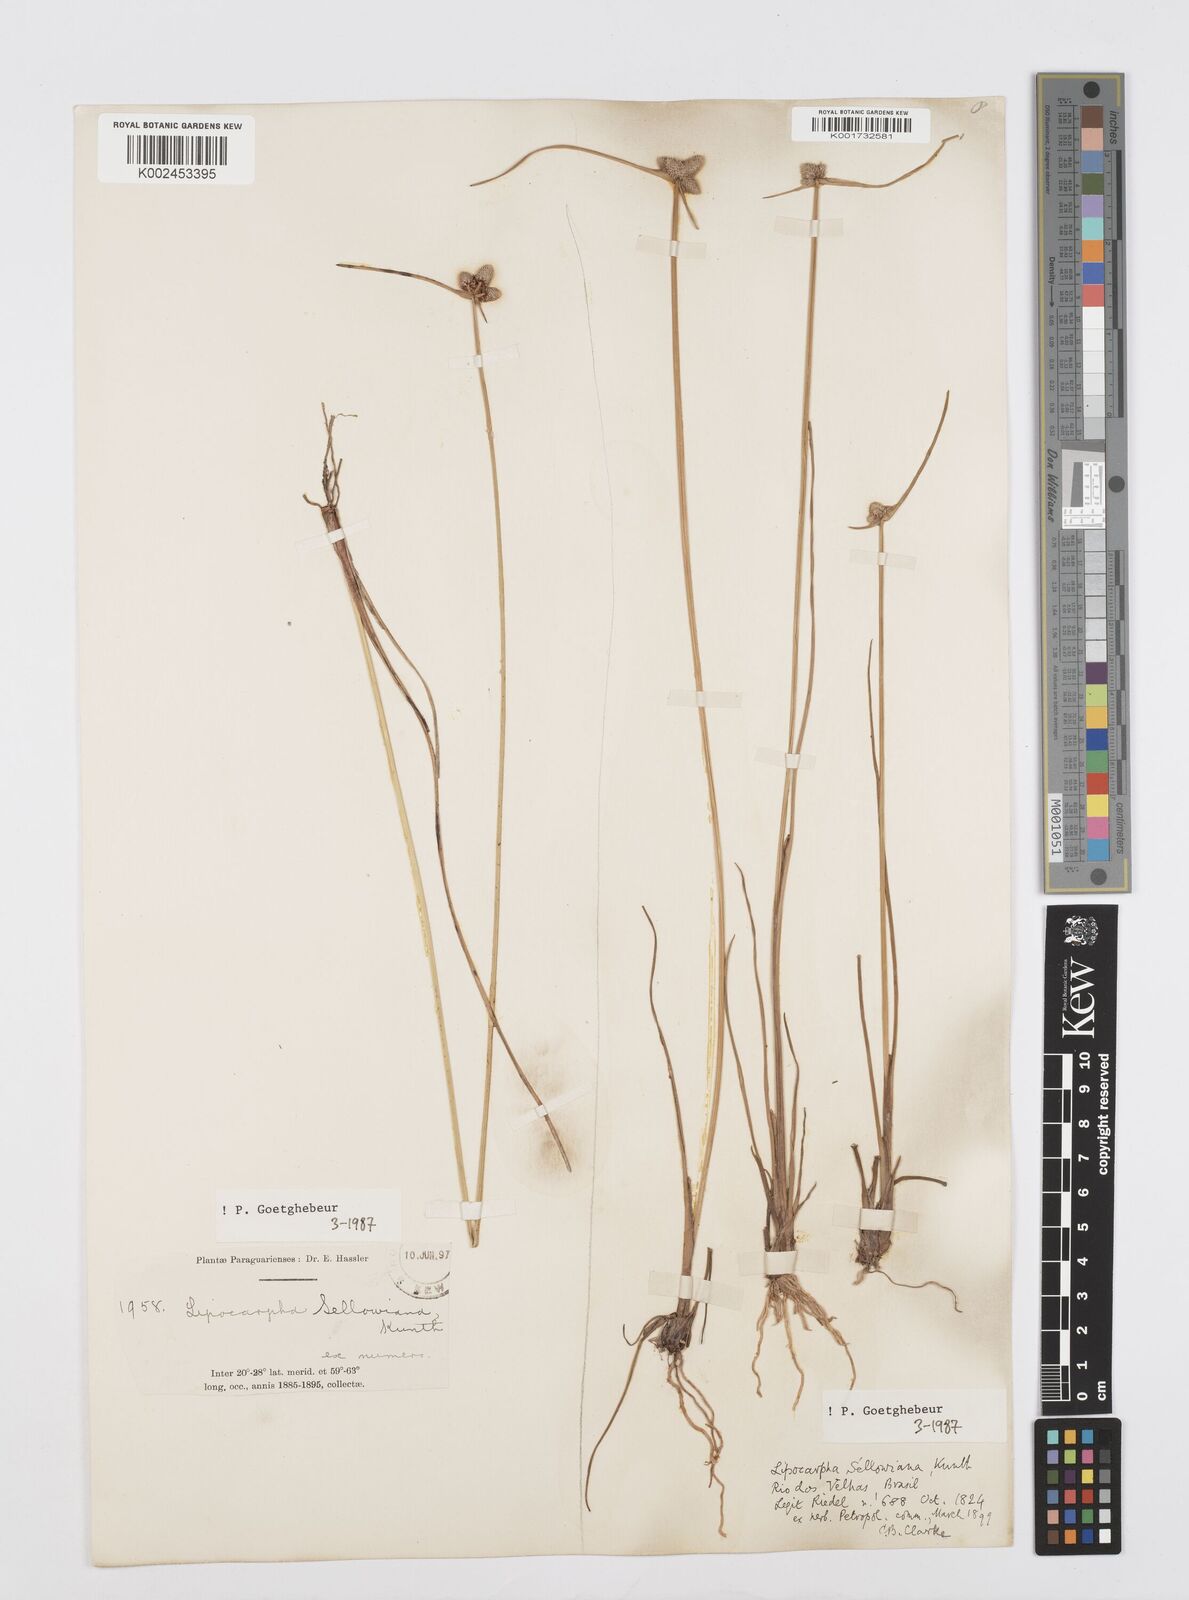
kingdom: Plantae
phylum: Tracheophyta
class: Liliopsida
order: Poales
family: Cyperaceae
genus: Cyperus
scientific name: Cyperus lanceolatus
